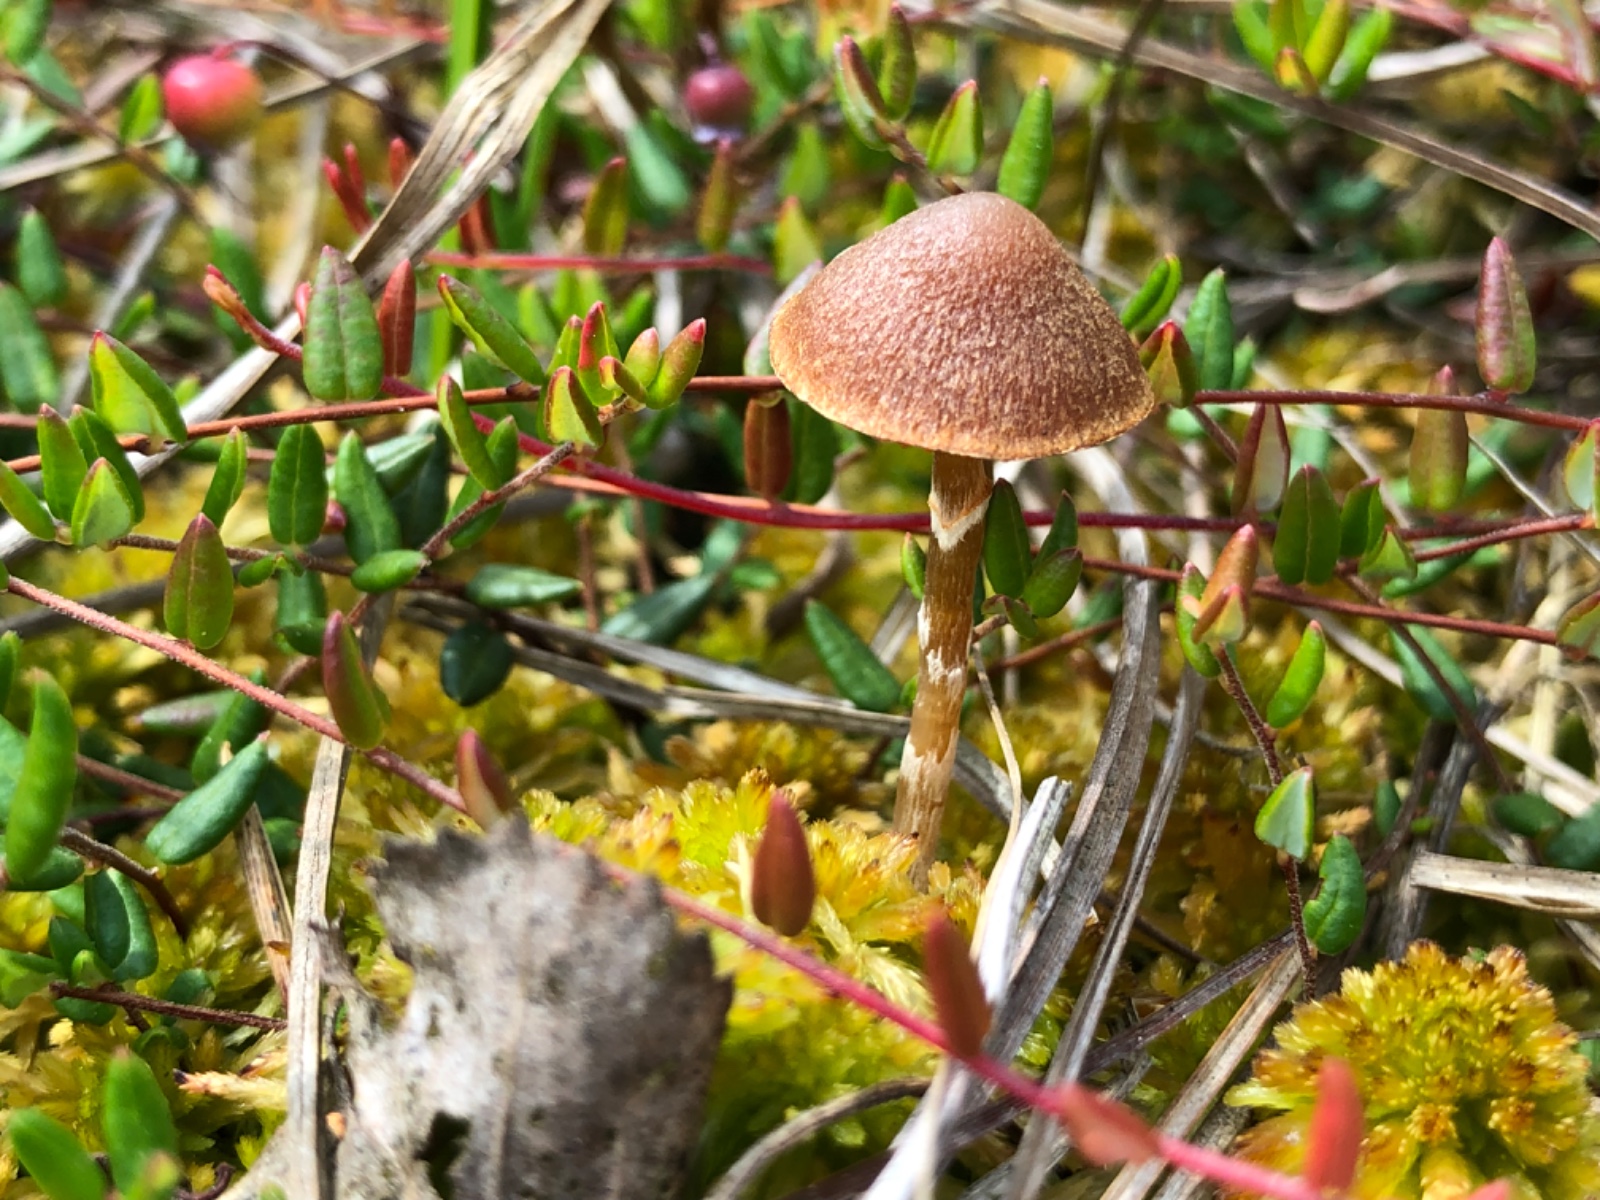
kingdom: Fungi
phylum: Basidiomycota
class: Agaricomycetes
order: Agaricales
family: Hymenogastraceae
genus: Galerina
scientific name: Galerina paludosa
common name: mose-hjelmhat
